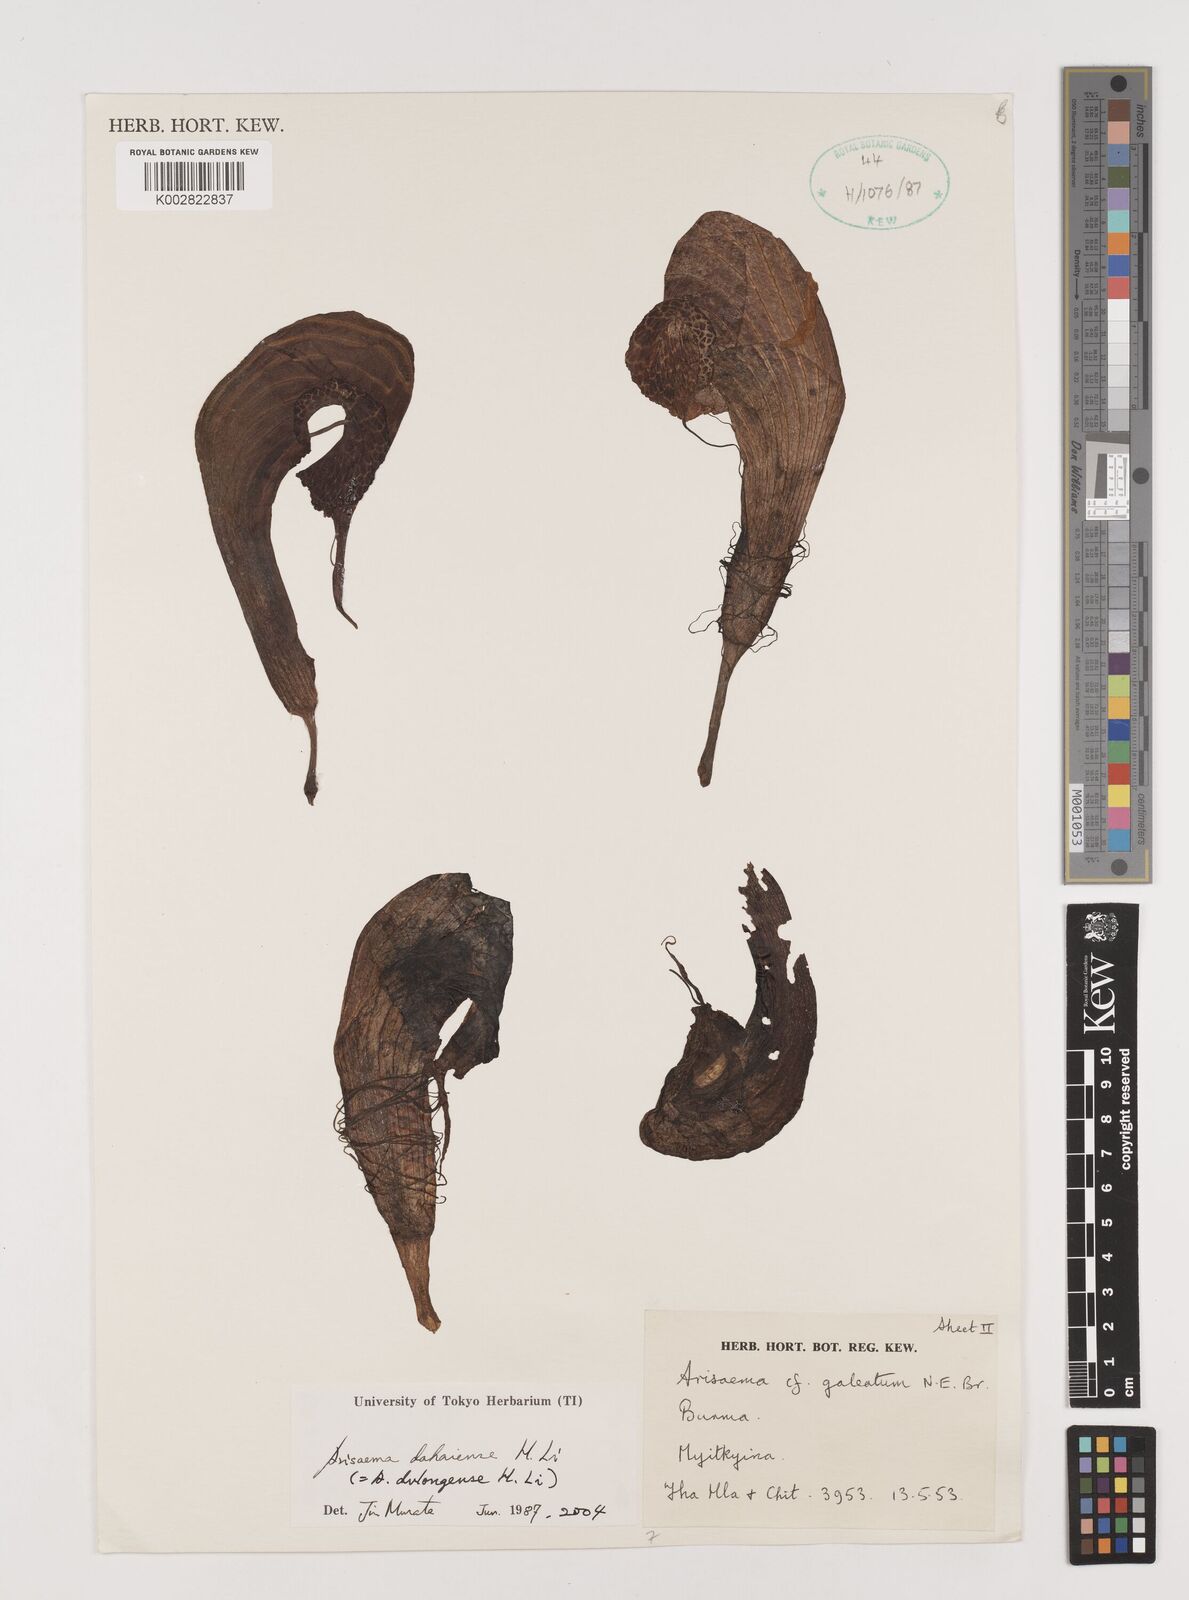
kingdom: Plantae
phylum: Tracheophyta
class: Liliopsida
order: Alismatales
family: Araceae
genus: Arisaema
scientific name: Arisaema dahaiense
